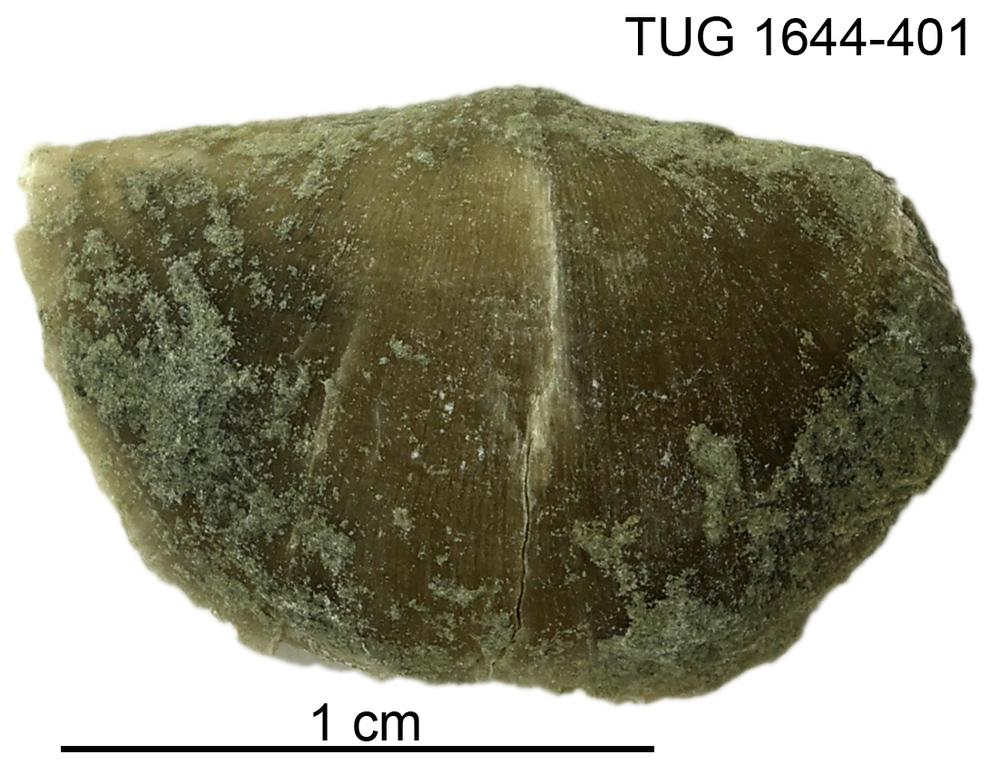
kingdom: Animalia
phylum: Brachiopoda
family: Oldhaminidae
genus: Eoplectodonta
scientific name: Eoplectodonta
